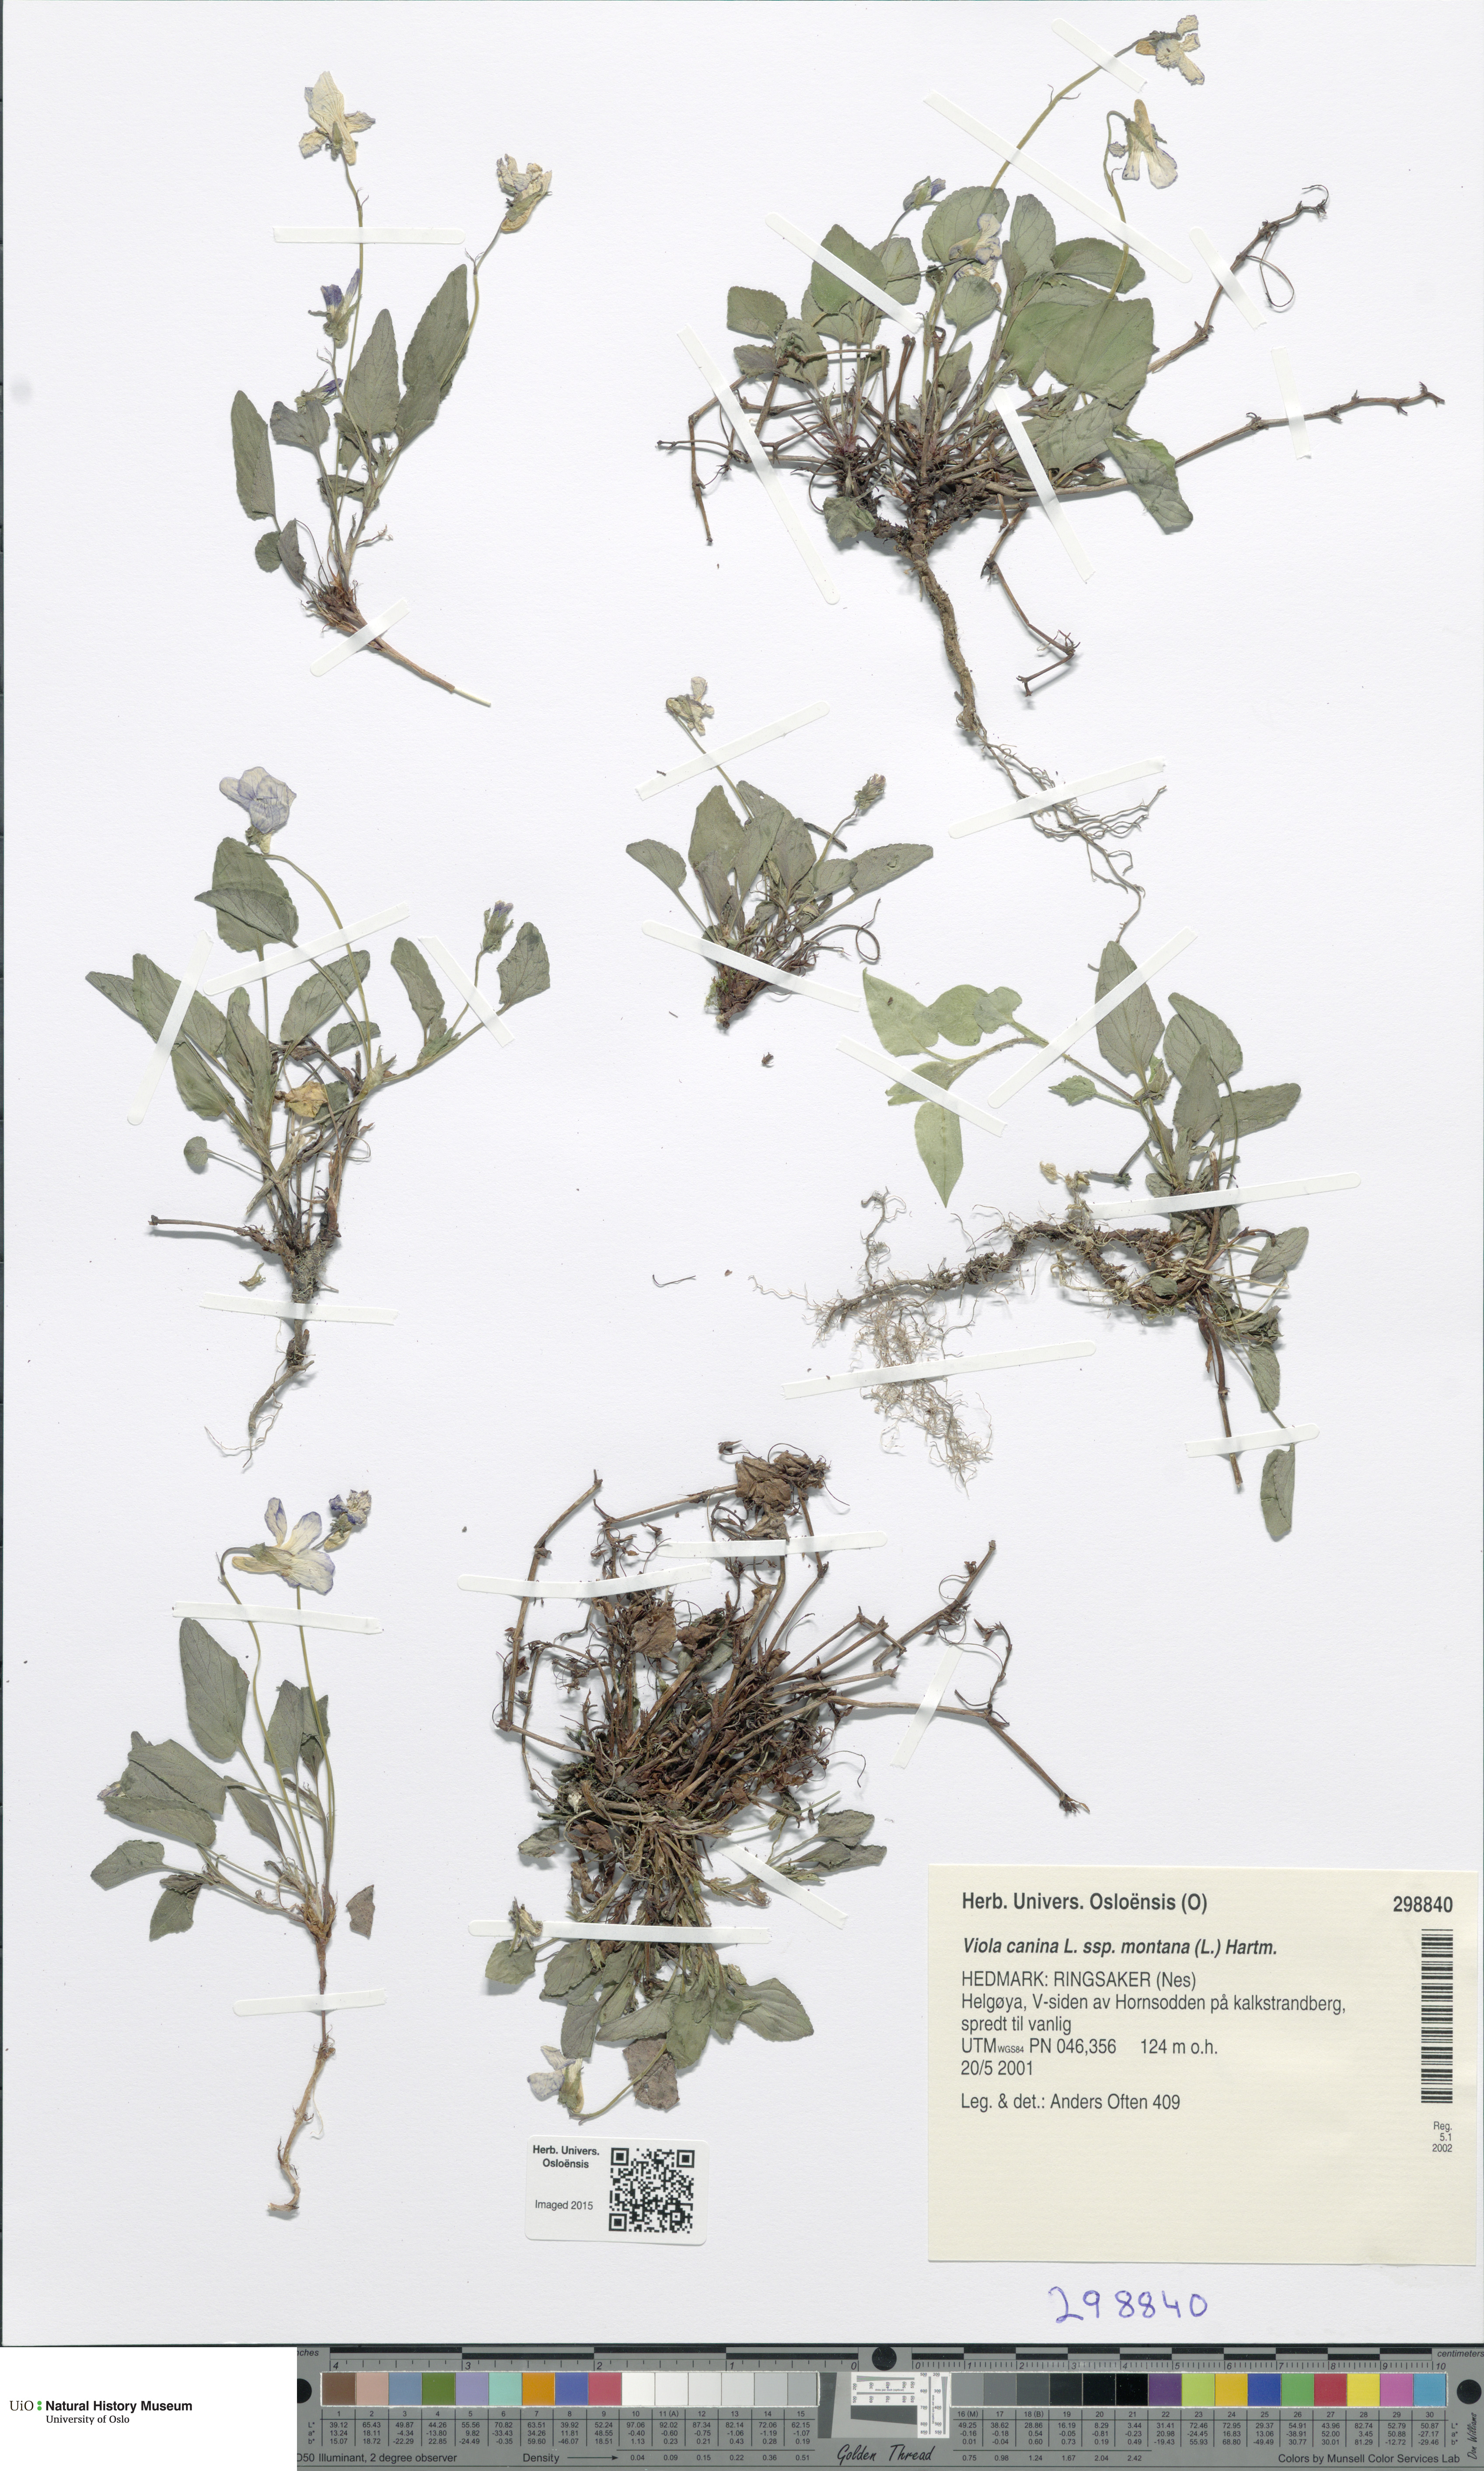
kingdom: Plantae
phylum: Tracheophyta
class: Magnoliopsida
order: Malpighiales
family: Violaceae
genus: Viola
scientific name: Viola ruppii
